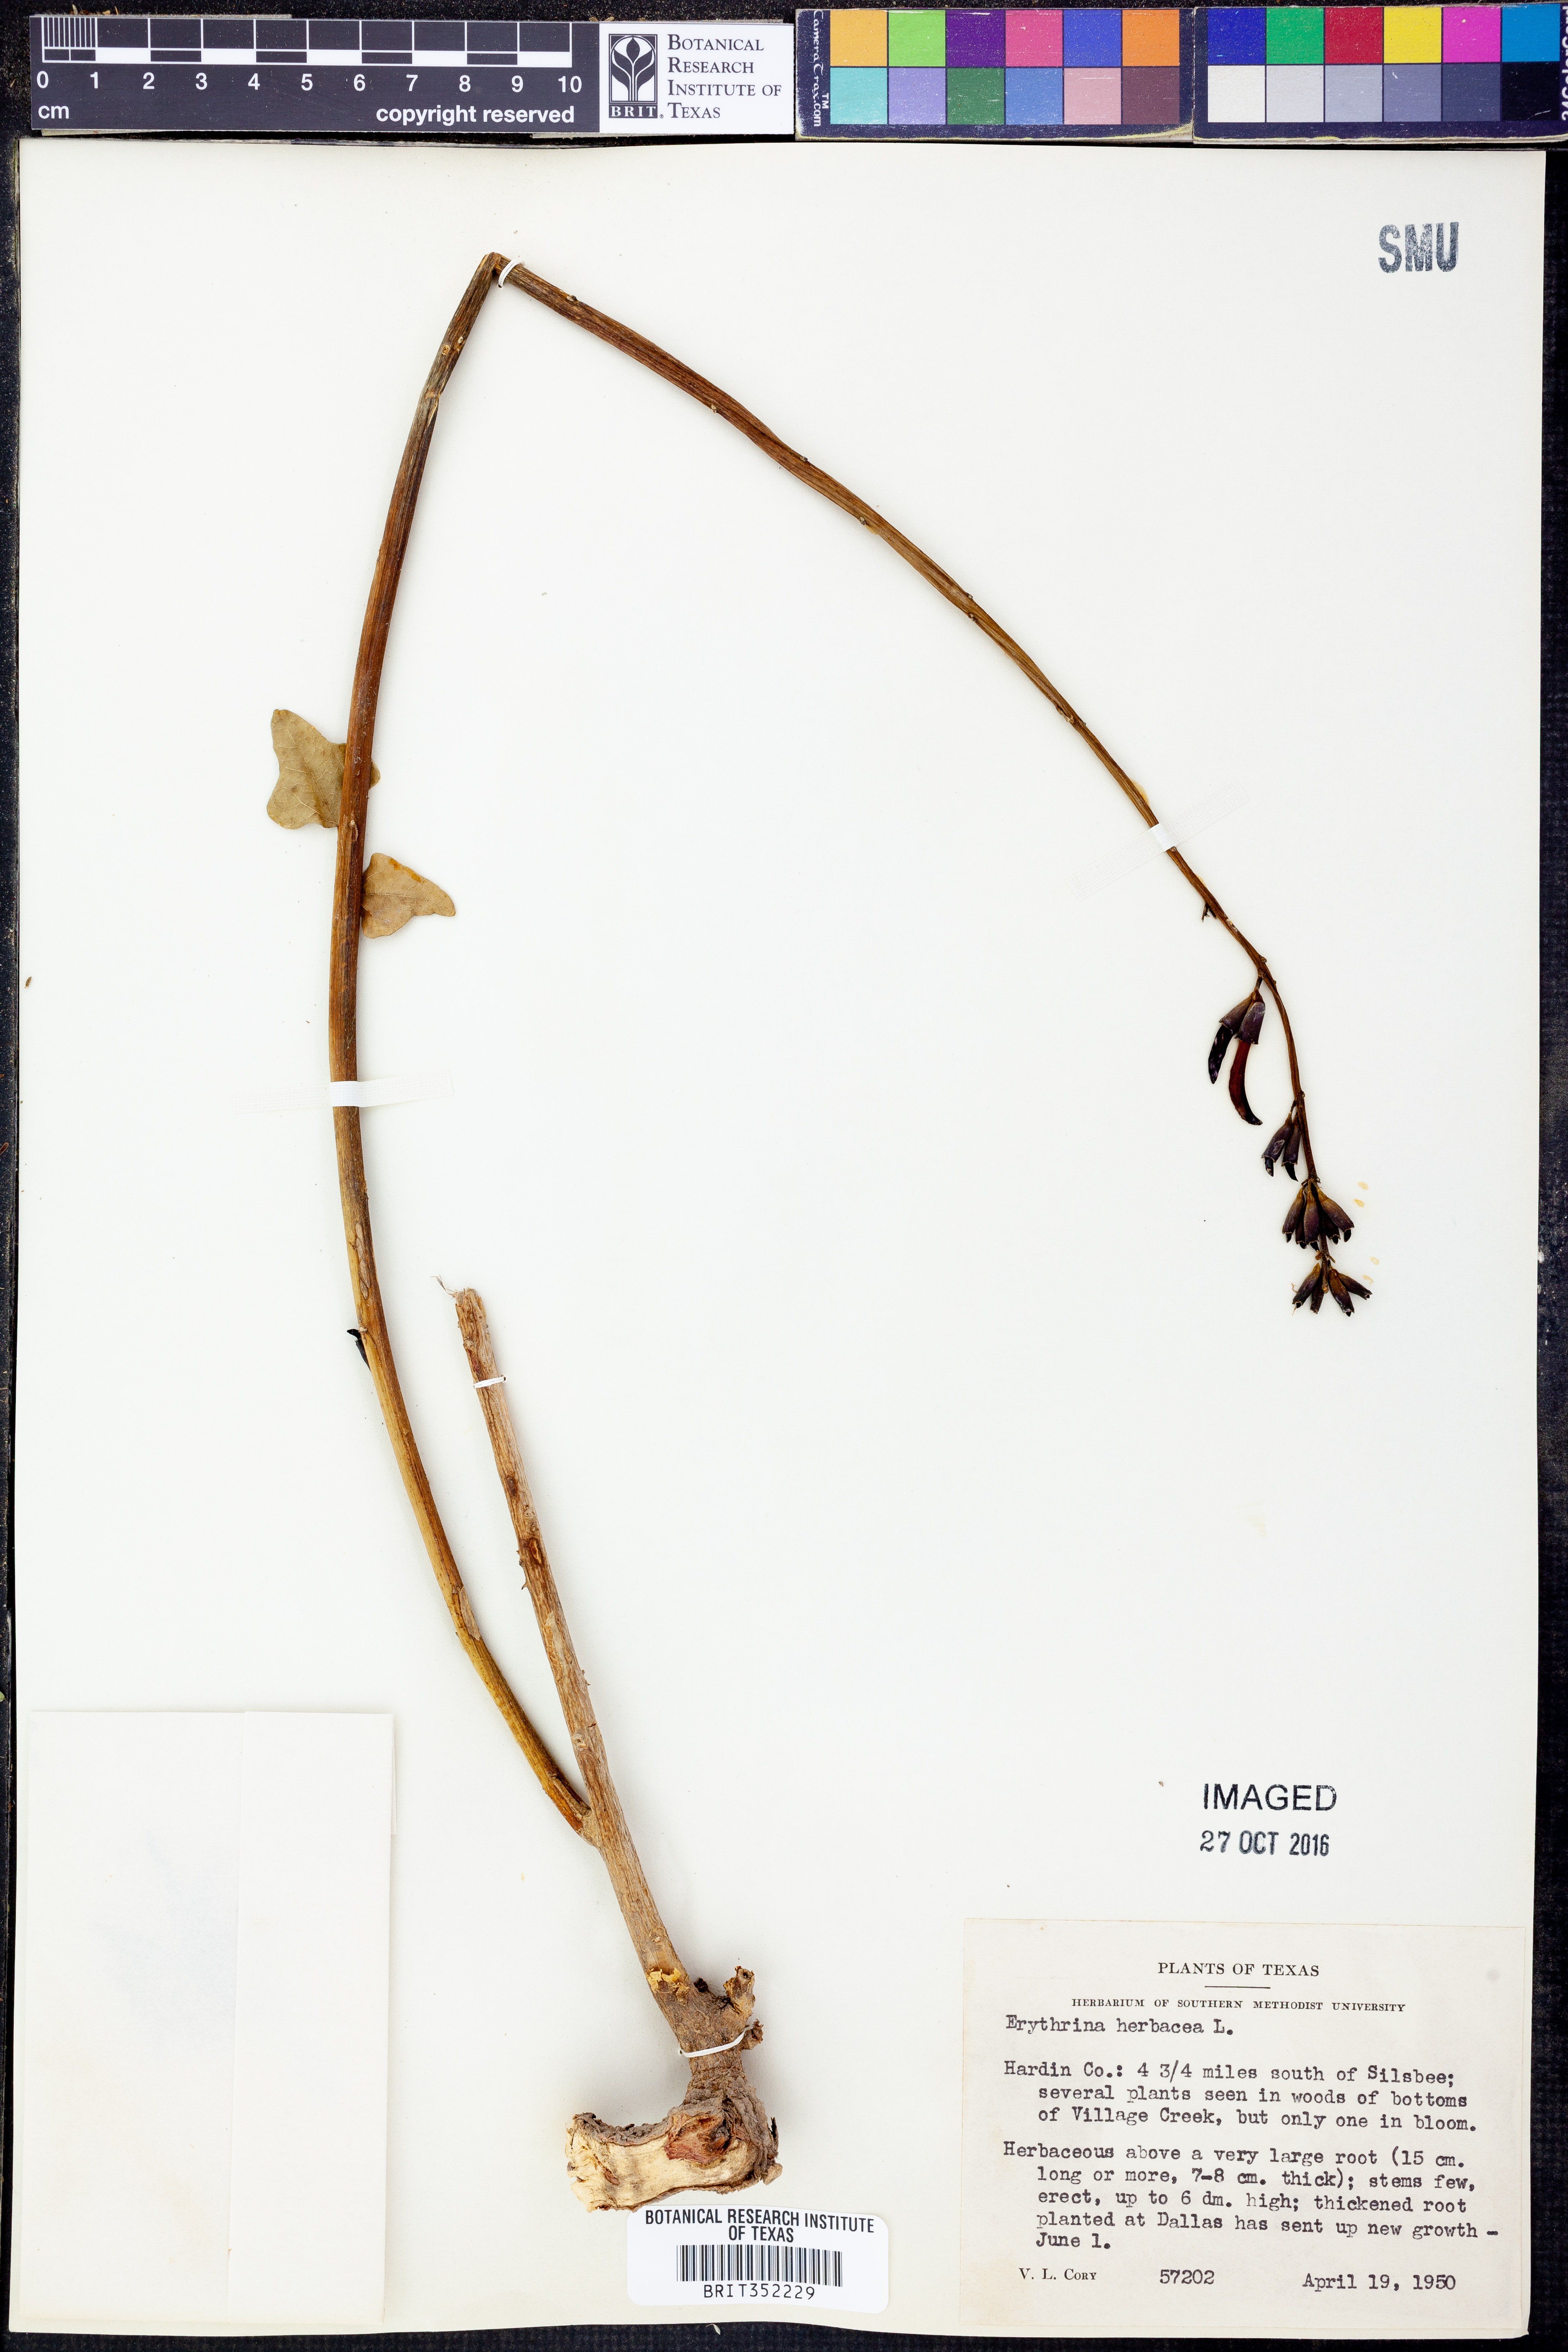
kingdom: Plantae
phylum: Tracheophyta
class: Magnoliopsida
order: Fabales
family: Fabaceae
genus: Erythrina
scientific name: Erythrina herbacea
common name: Coral-bean
